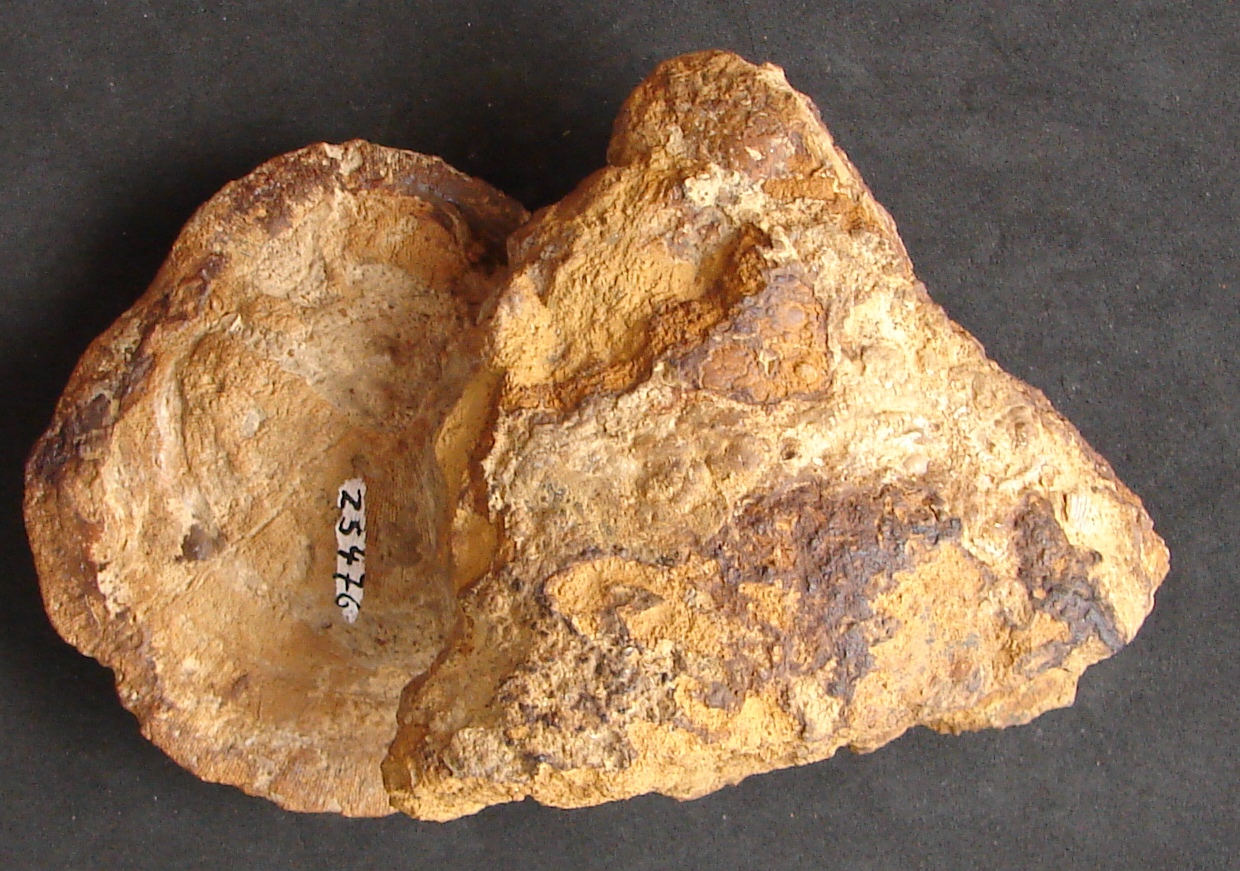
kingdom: Animalia
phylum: Cnidaria
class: Anthozoa
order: Scleractinia
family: Latomeandridae
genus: Periseris
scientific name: Periseris
